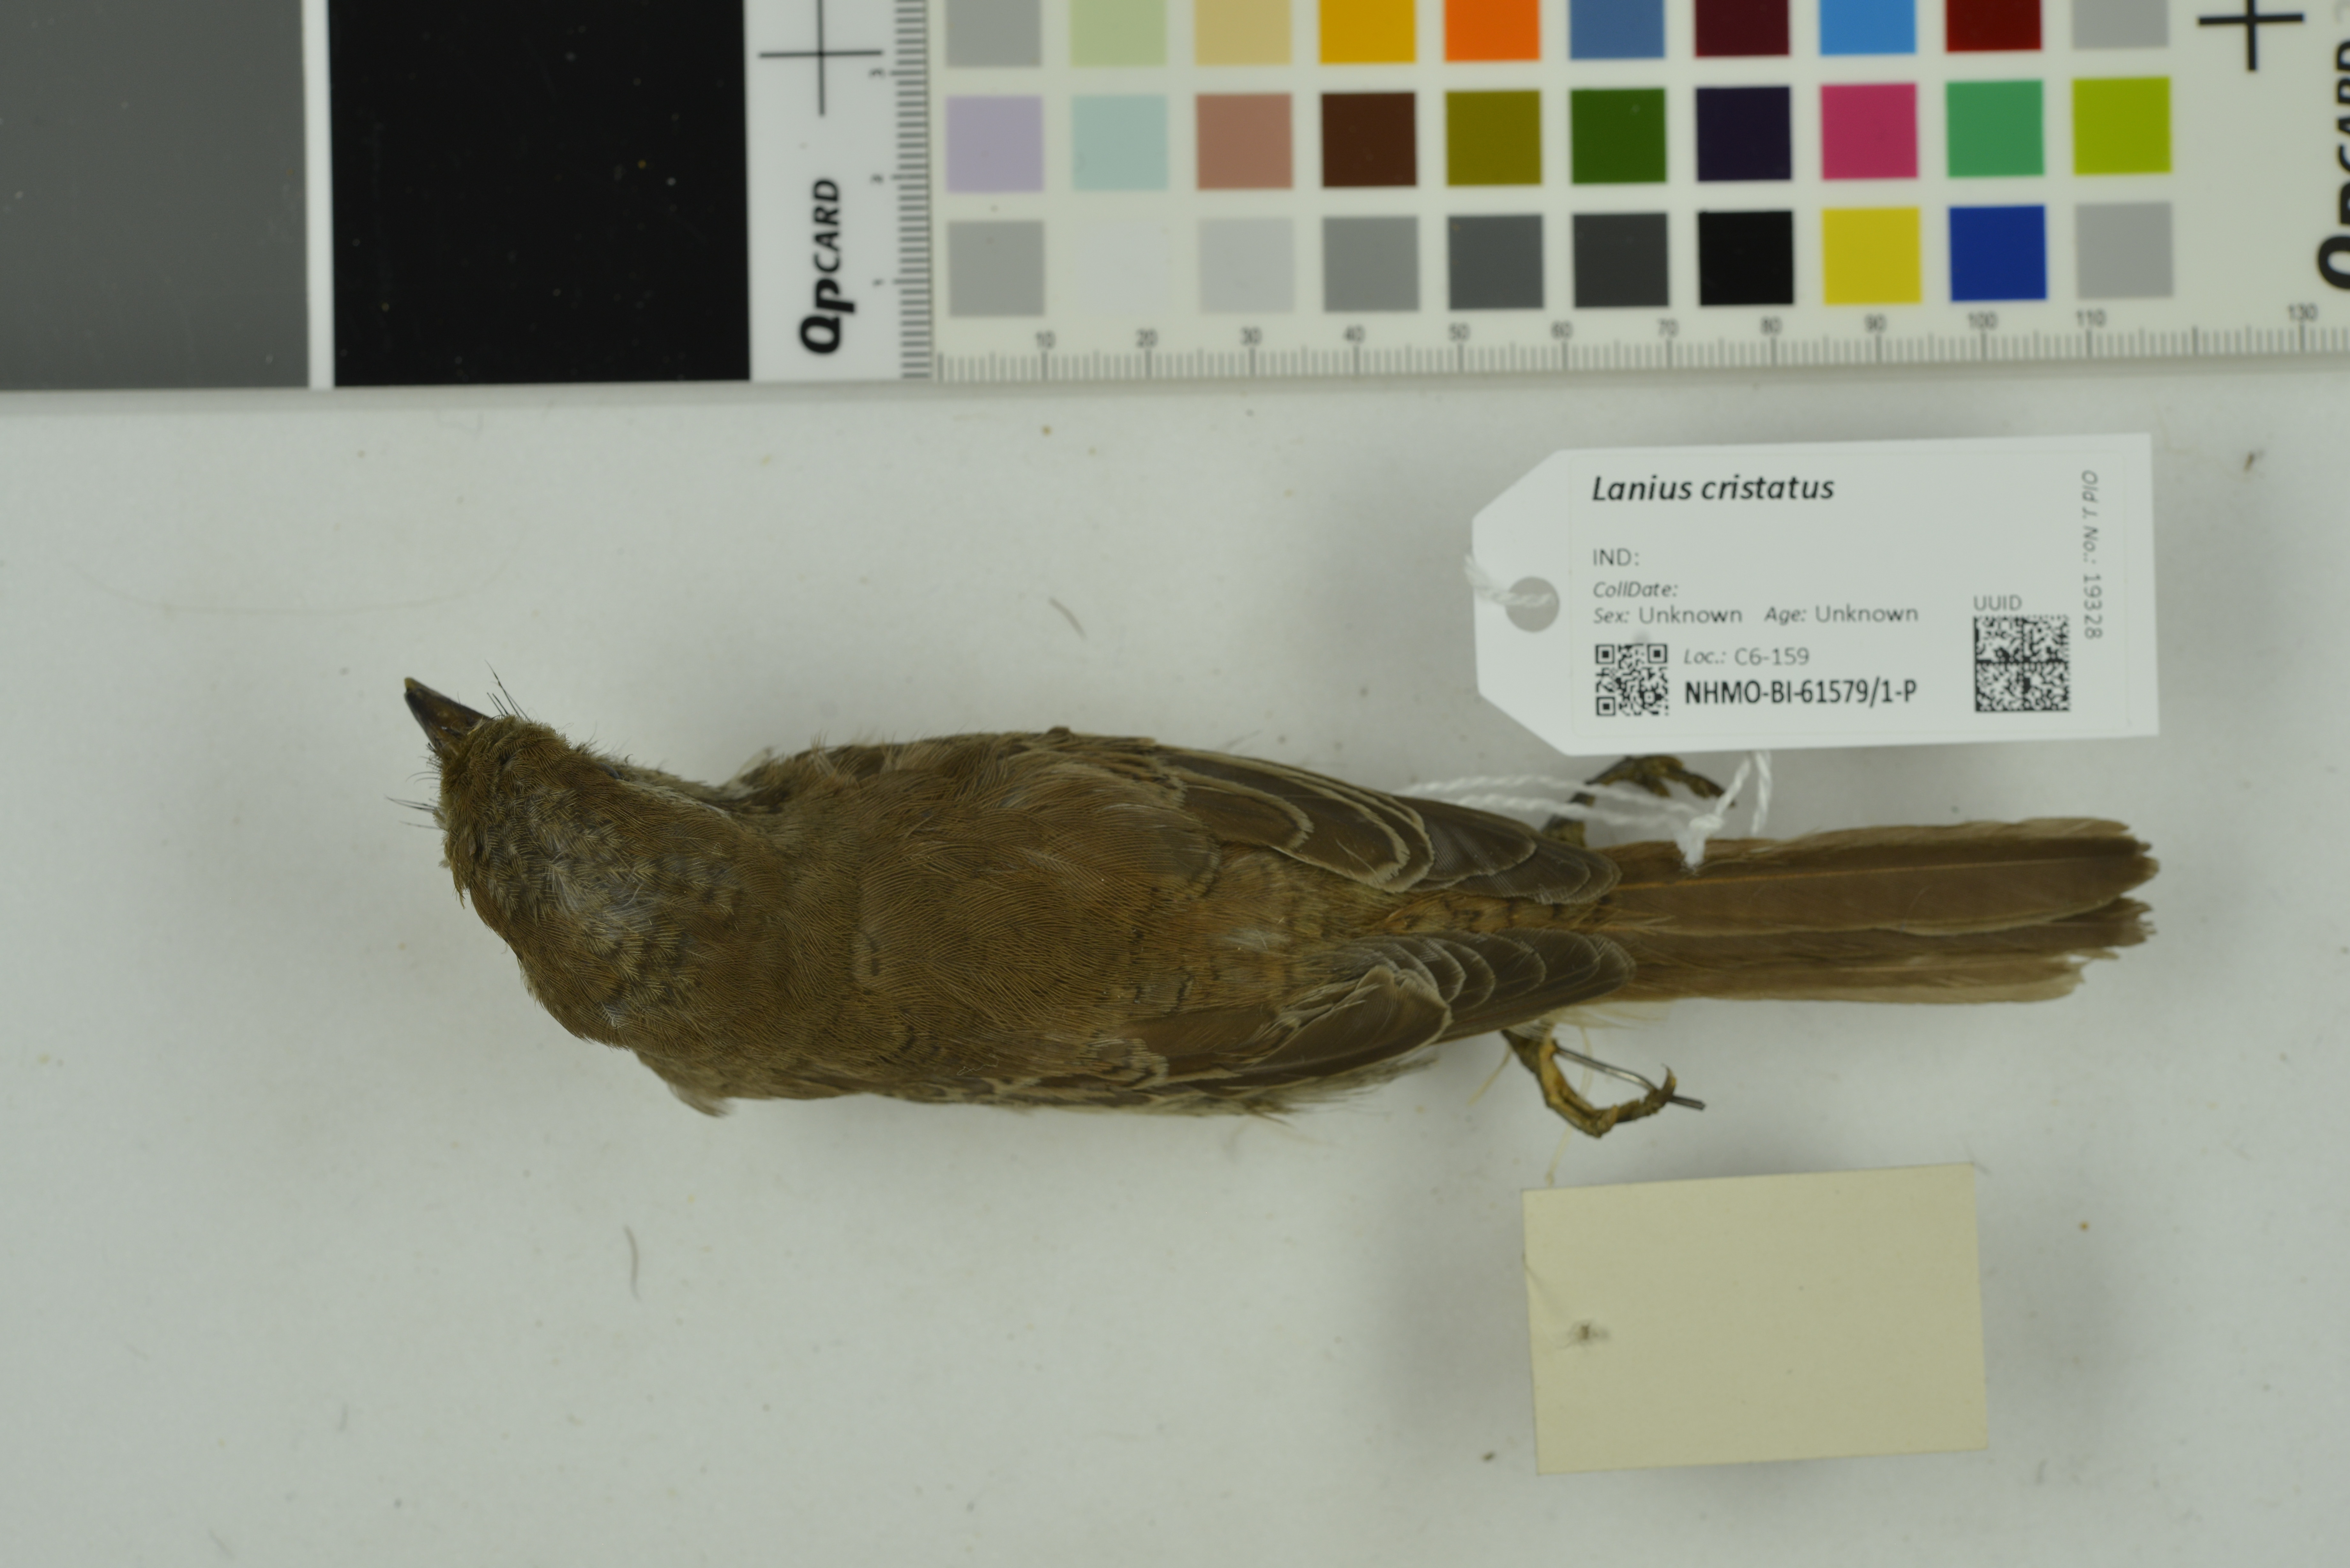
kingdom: Animalia
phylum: Chordata
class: Aves
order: Passeriformes
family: Laniidae
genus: Lanius
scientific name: Lanius cristatus
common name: Brown shrike
